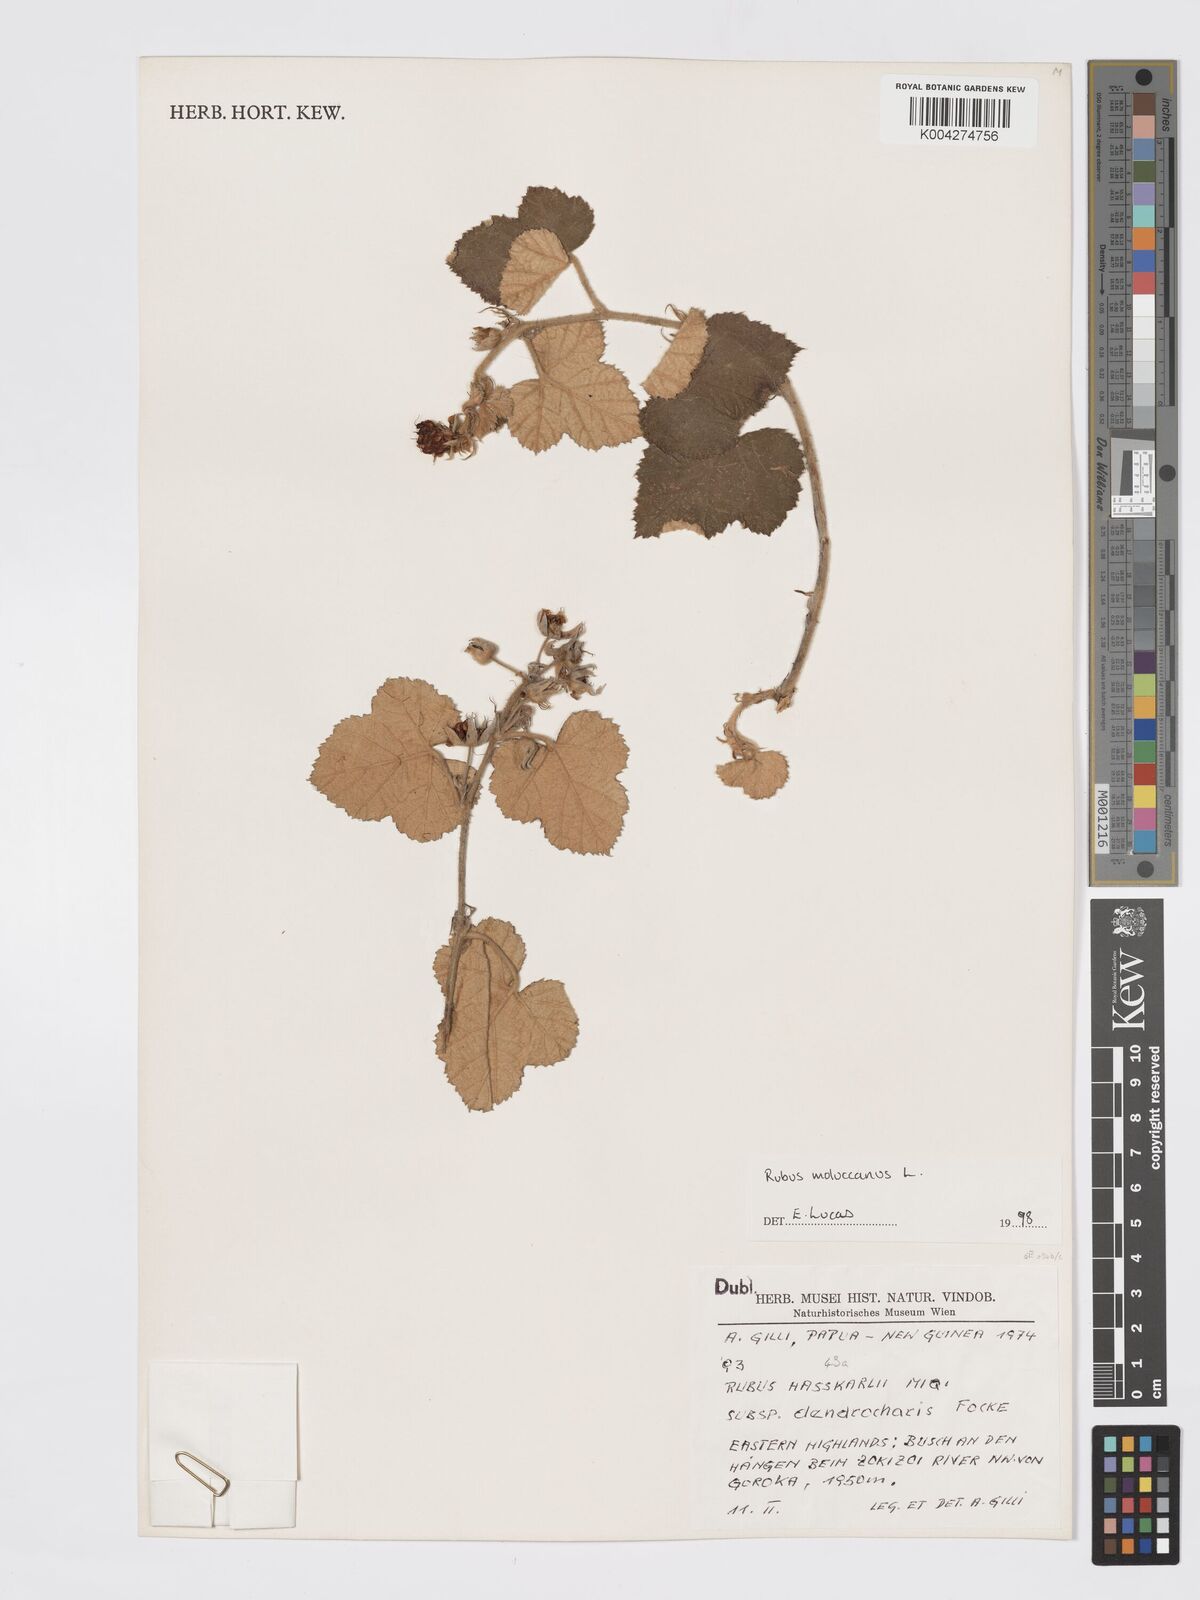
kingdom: Plantae
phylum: Tracheophyta
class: Magnoliopsida
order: Rosales
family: Rosaceae
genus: Rubus
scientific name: Rubus moluccanus
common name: Wild raspberry
